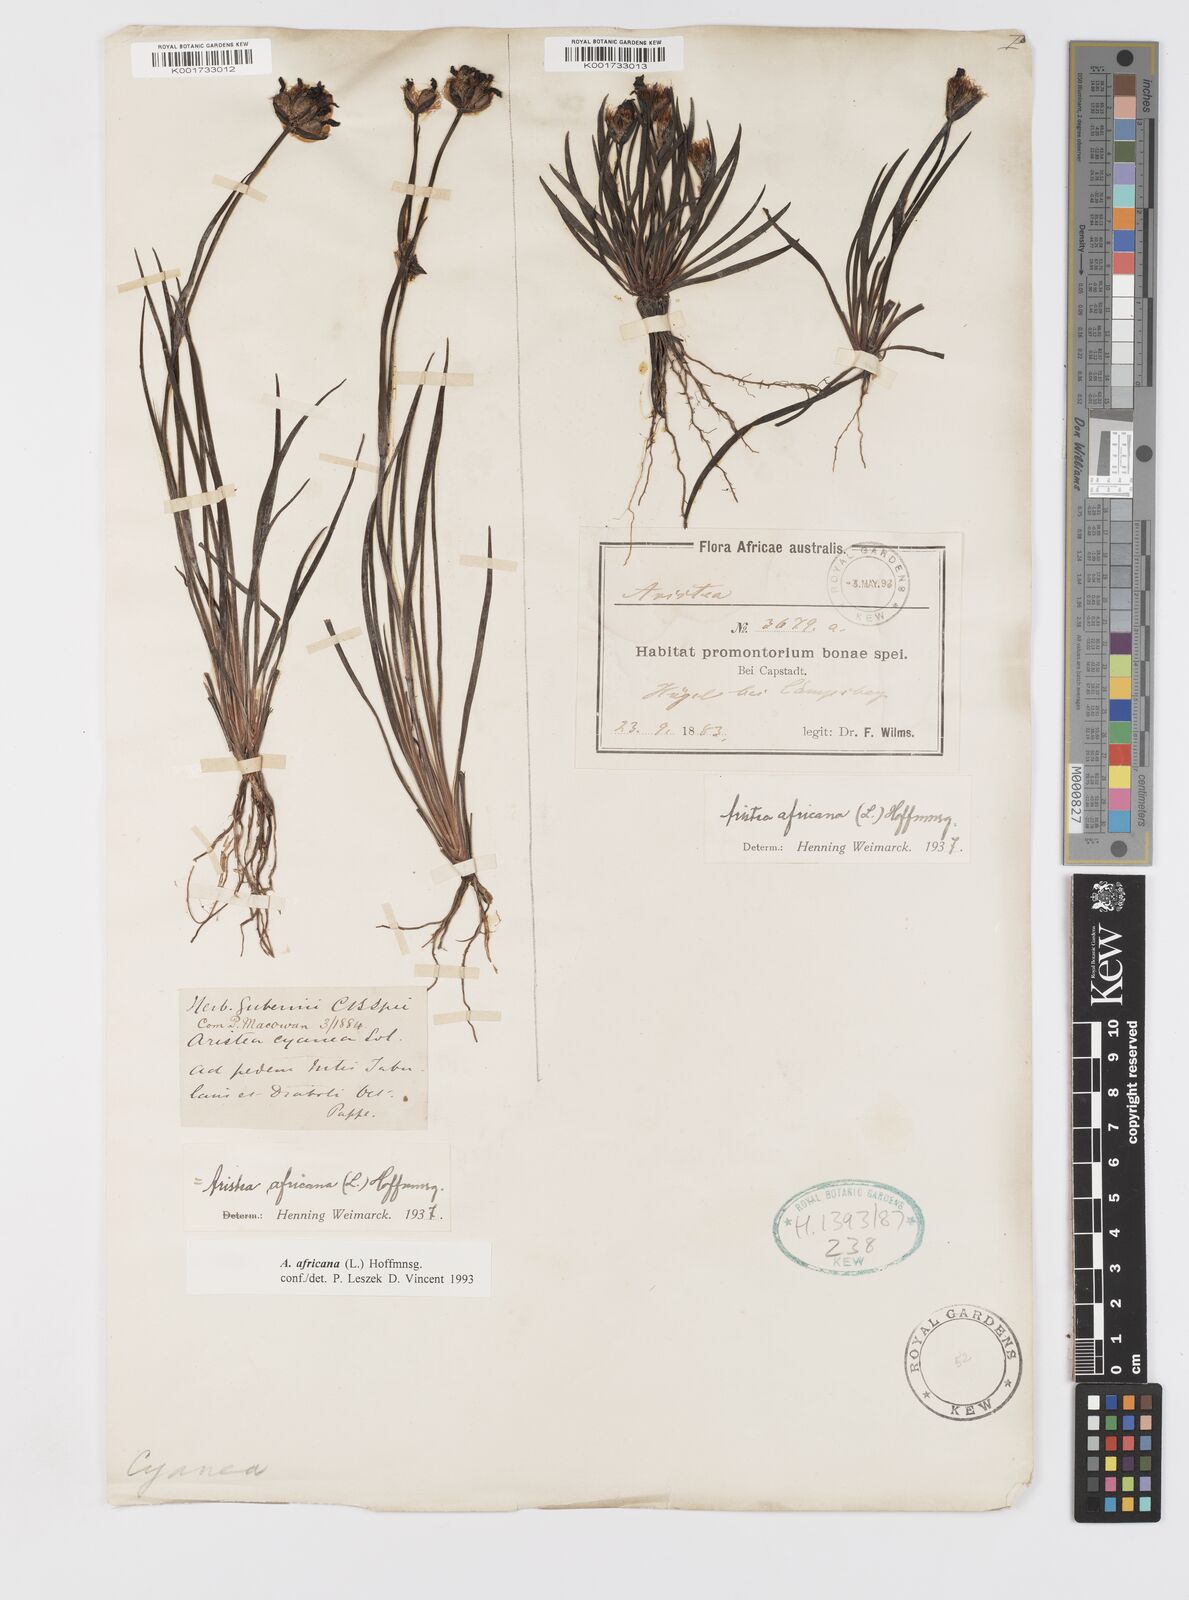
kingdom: Plantae
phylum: Tracheophyta
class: Liliopsida
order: Asparagales
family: Iridaceae
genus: Aristea
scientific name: Aristea africana
